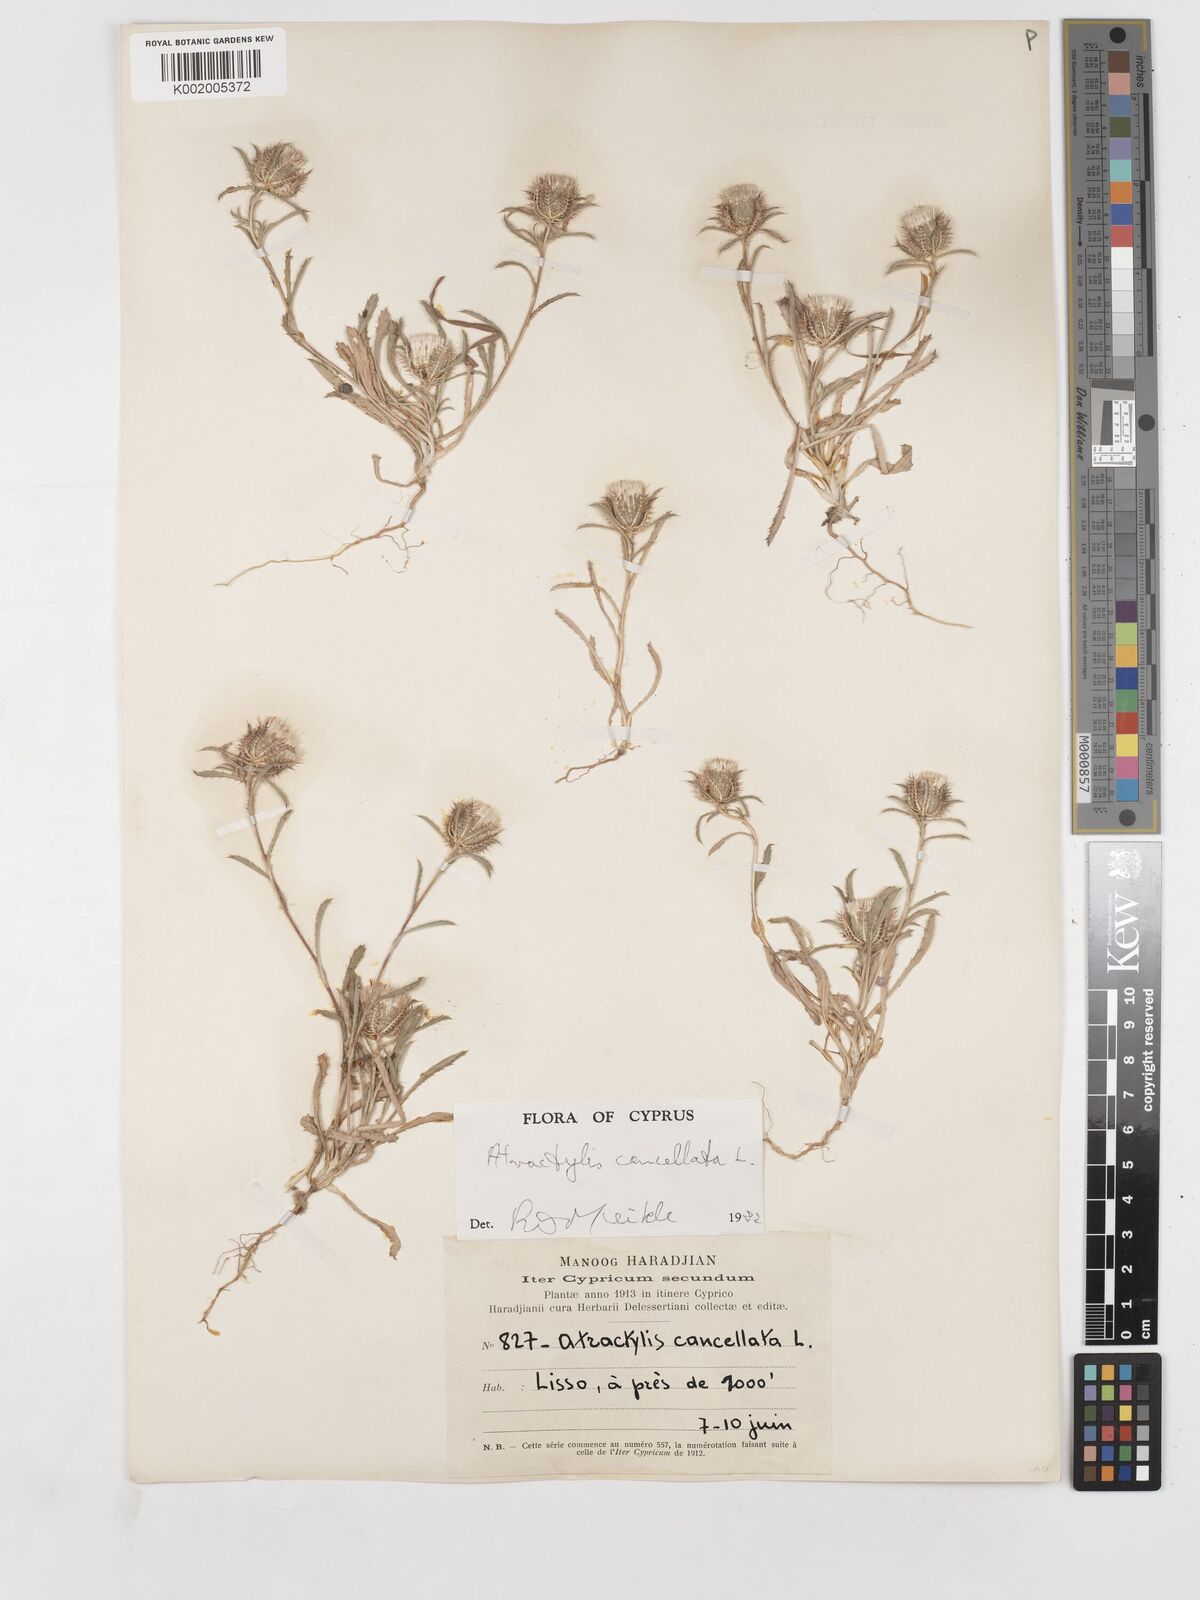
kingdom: Plantae
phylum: Tracheophyta
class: Magnoliopsida
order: Asterales
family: Asteraceae
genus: Atractylis
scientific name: Atractylis cancellata
